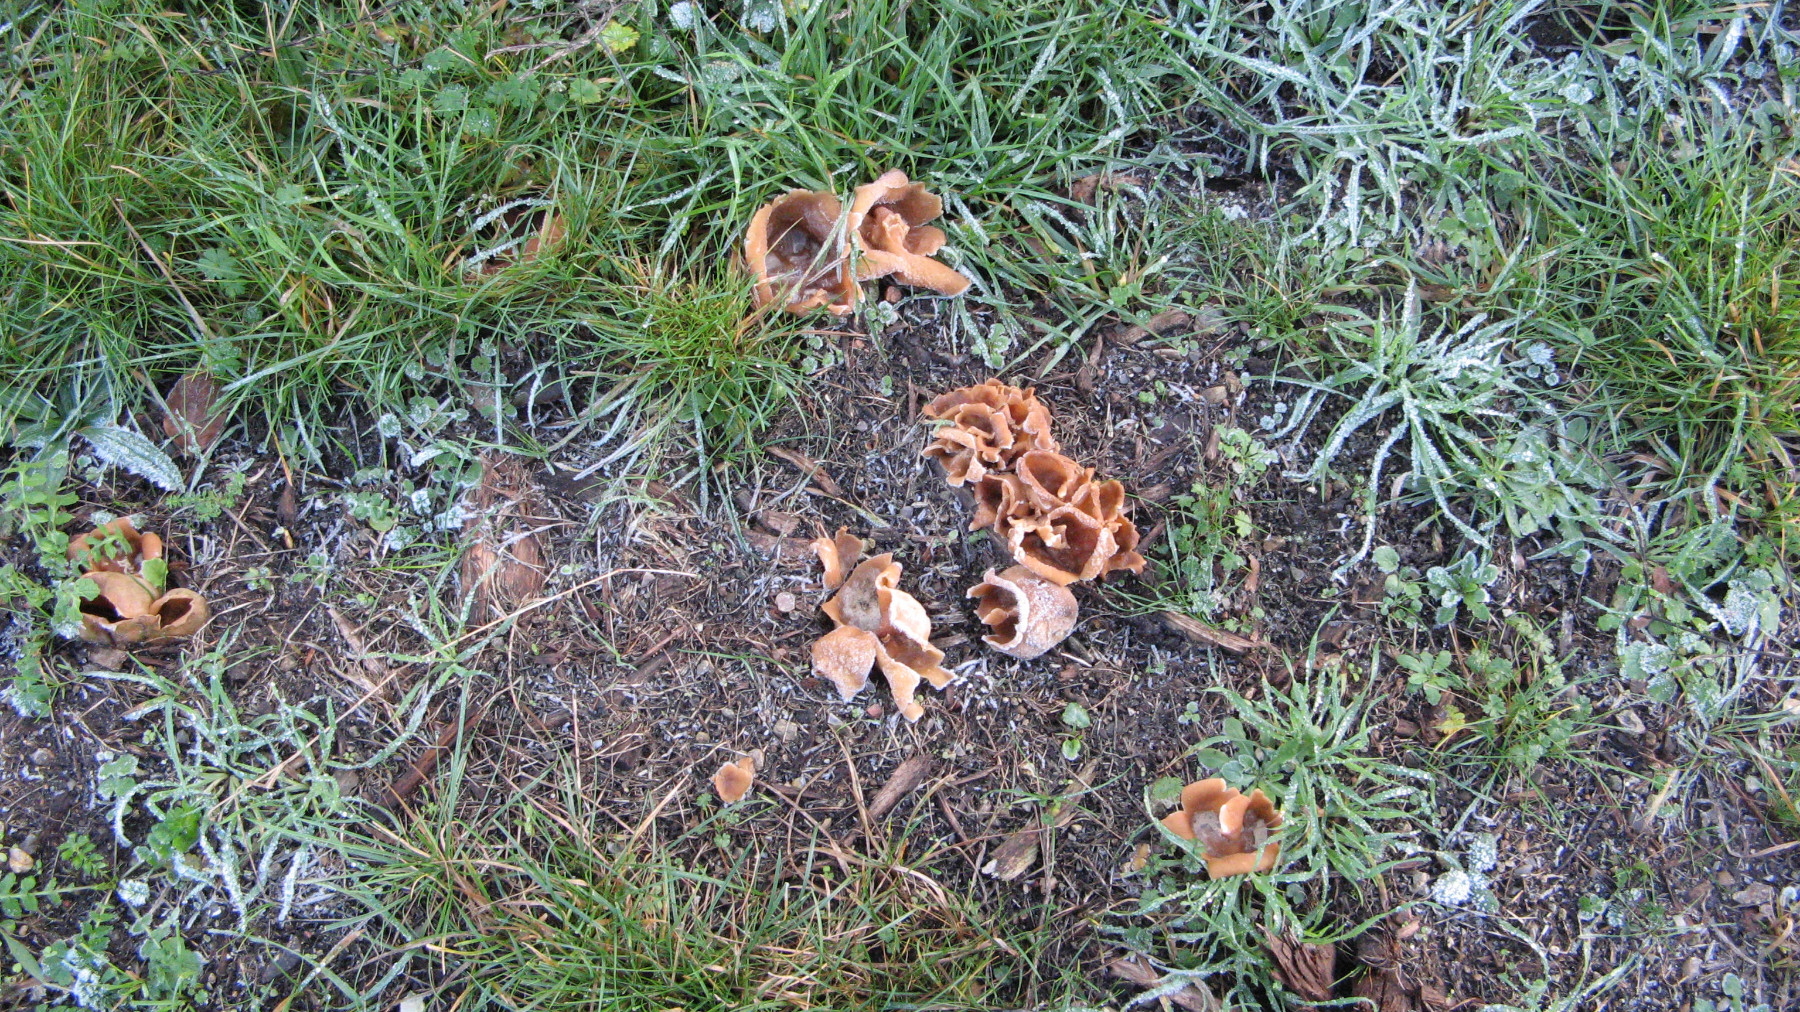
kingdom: Fungi
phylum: Ascomycota
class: Pezizomycetes
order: Pezizales
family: Pezizaceae
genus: Peziza
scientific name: Peziza vesiculosa
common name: blære-bægersvamp
